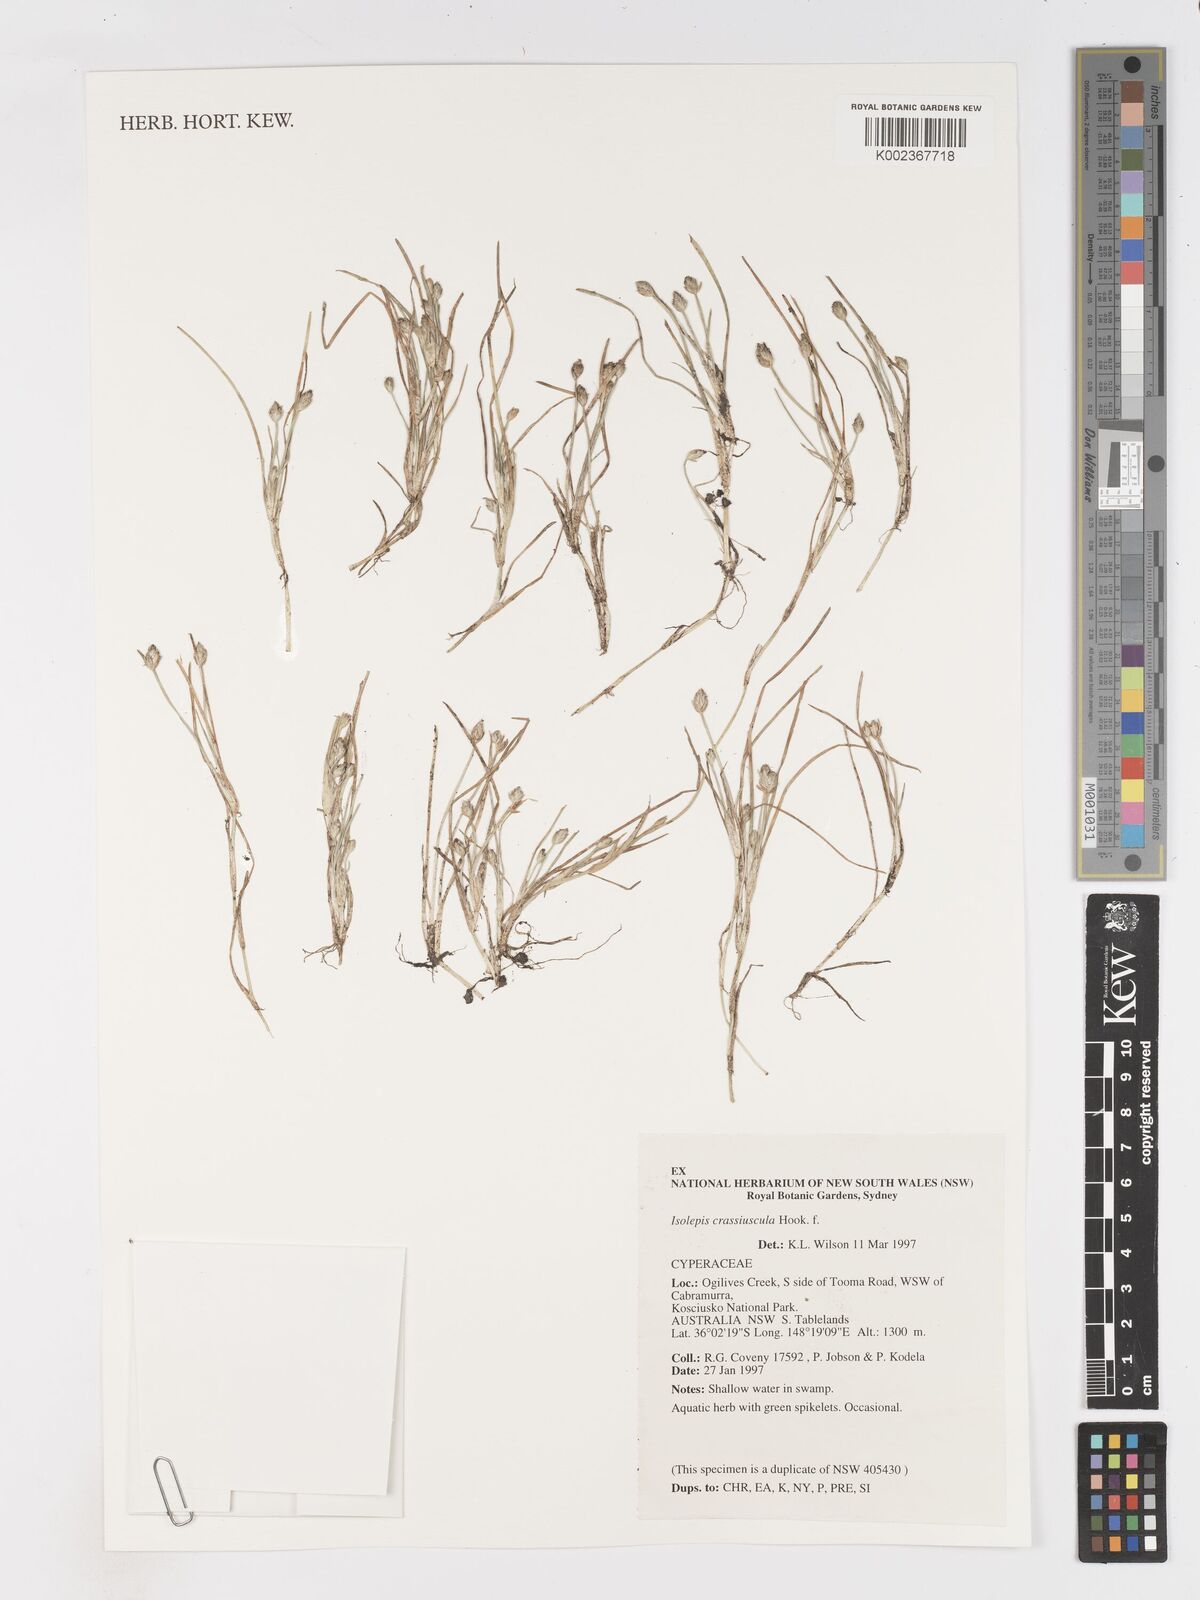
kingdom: Plantae
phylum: Tracheophyta
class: Liliopsida
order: Poales
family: Cyperaceae
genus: Isolepis
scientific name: Isolepis crassiuscula
